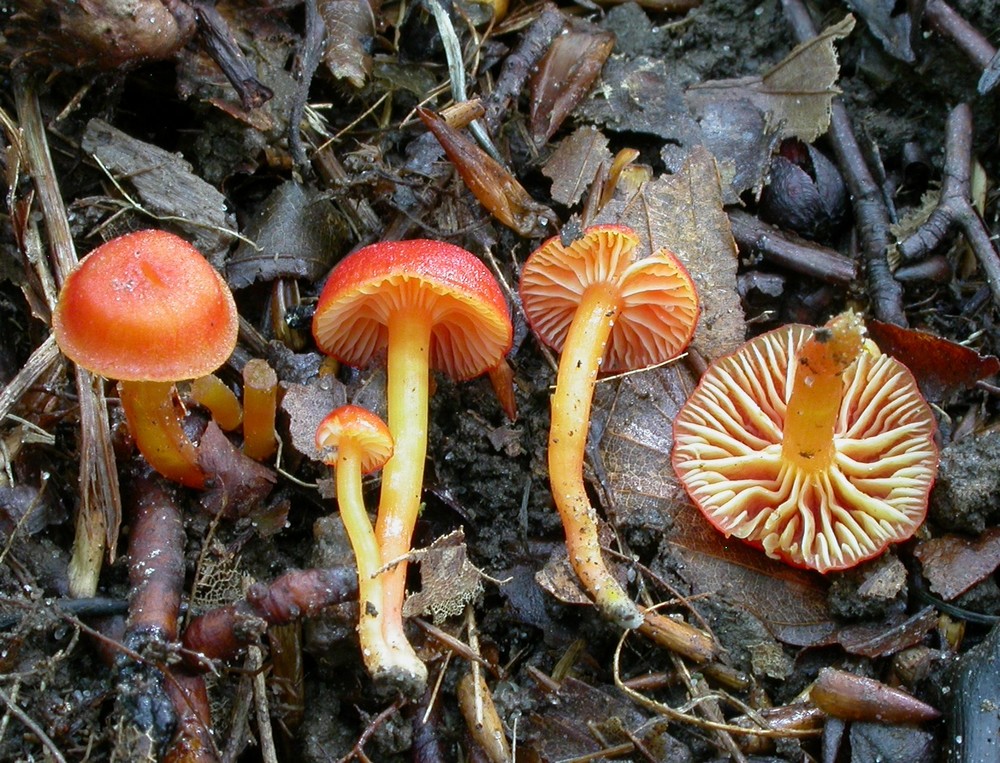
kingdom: Fungi
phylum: Basidiomycota
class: Agaricomycetes
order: Agaricales
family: Hygrophoraceae
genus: Hygrocybe
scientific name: Hygrocybe insipida
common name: liden vokshat
